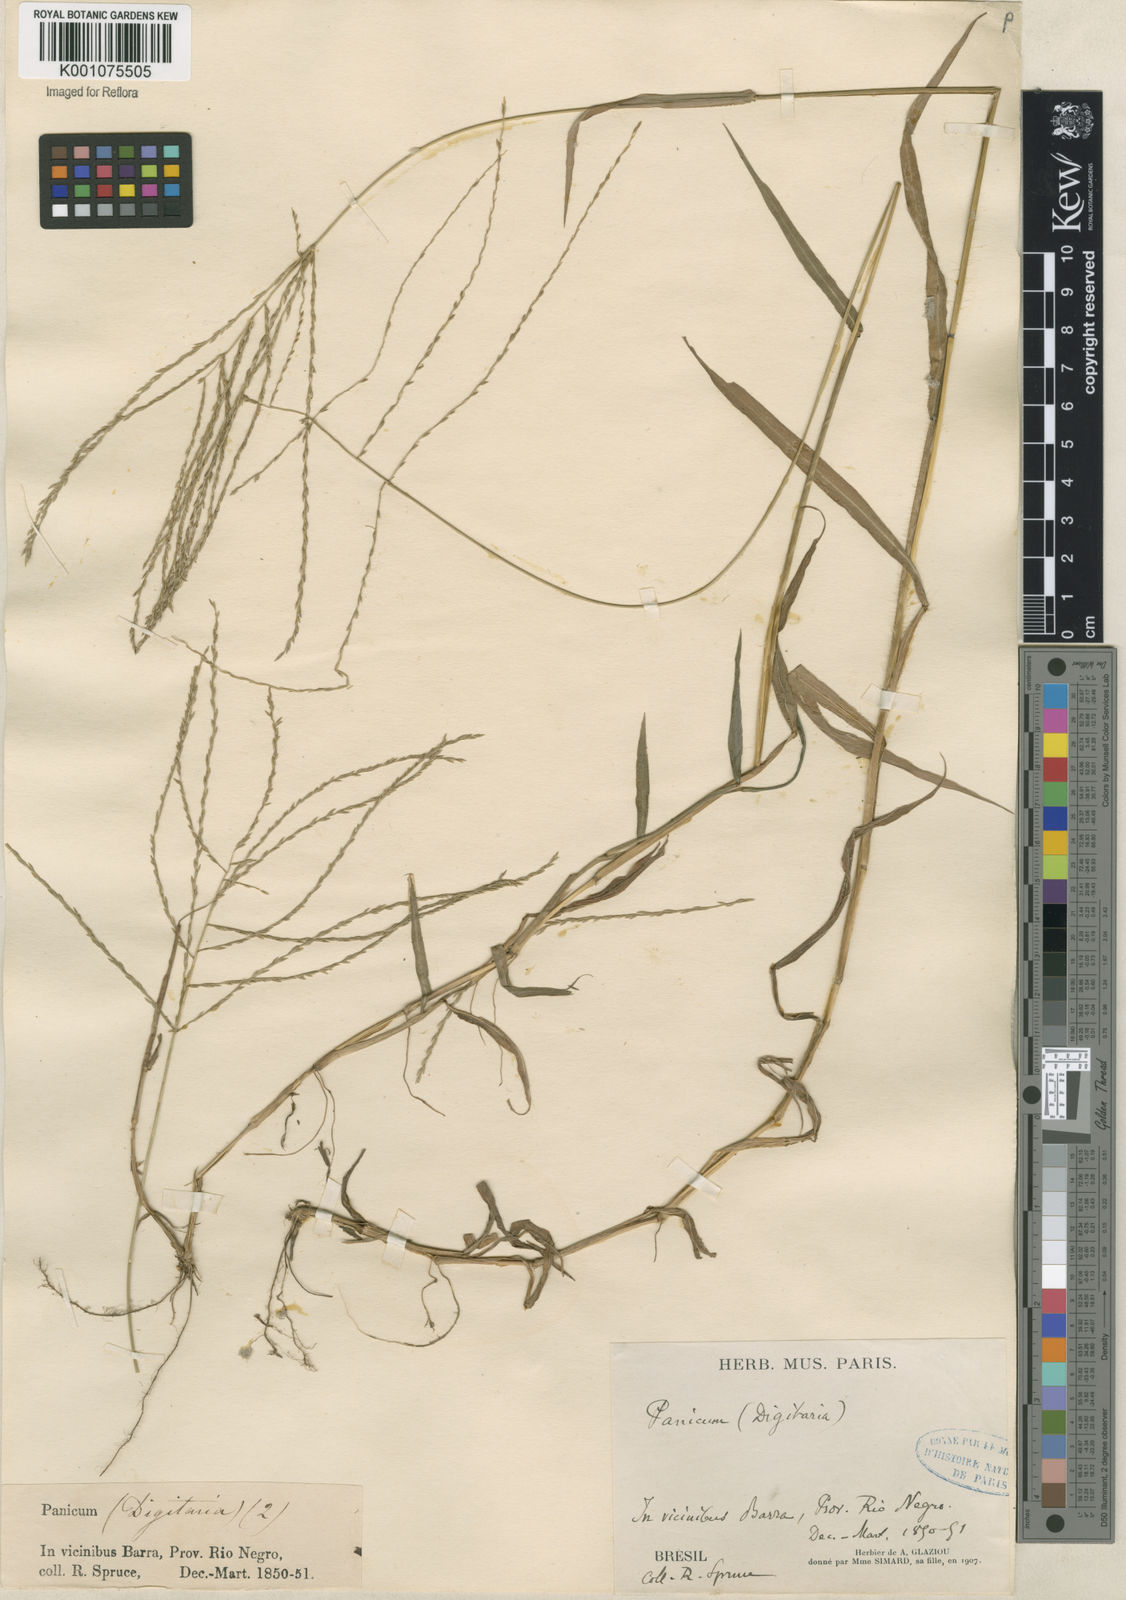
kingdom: Plantae
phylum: Tracheophyta
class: Liliopsida
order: Poales
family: Poaceae
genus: Digitaria
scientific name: Digitaria horizontalis
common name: Jamaican crabgrass
